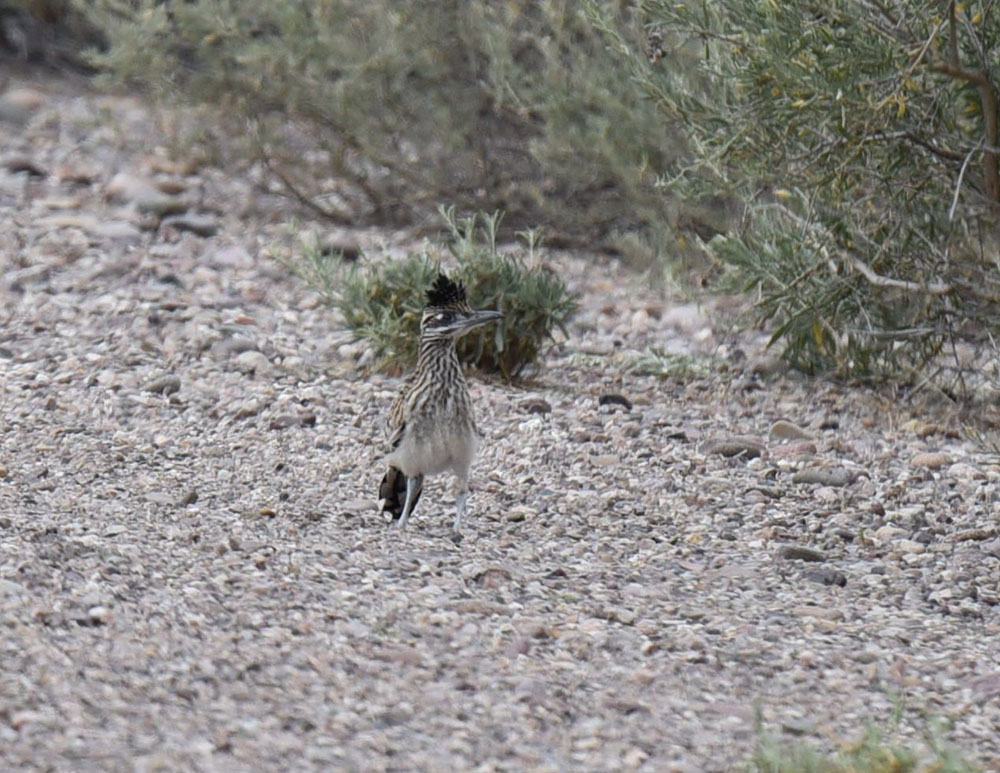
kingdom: Animalia
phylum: Chordata
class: Aves
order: Cuculiformes
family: Cuculidae
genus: Geococcyx
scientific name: Geococcyx californianus
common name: Greater roadrunner
